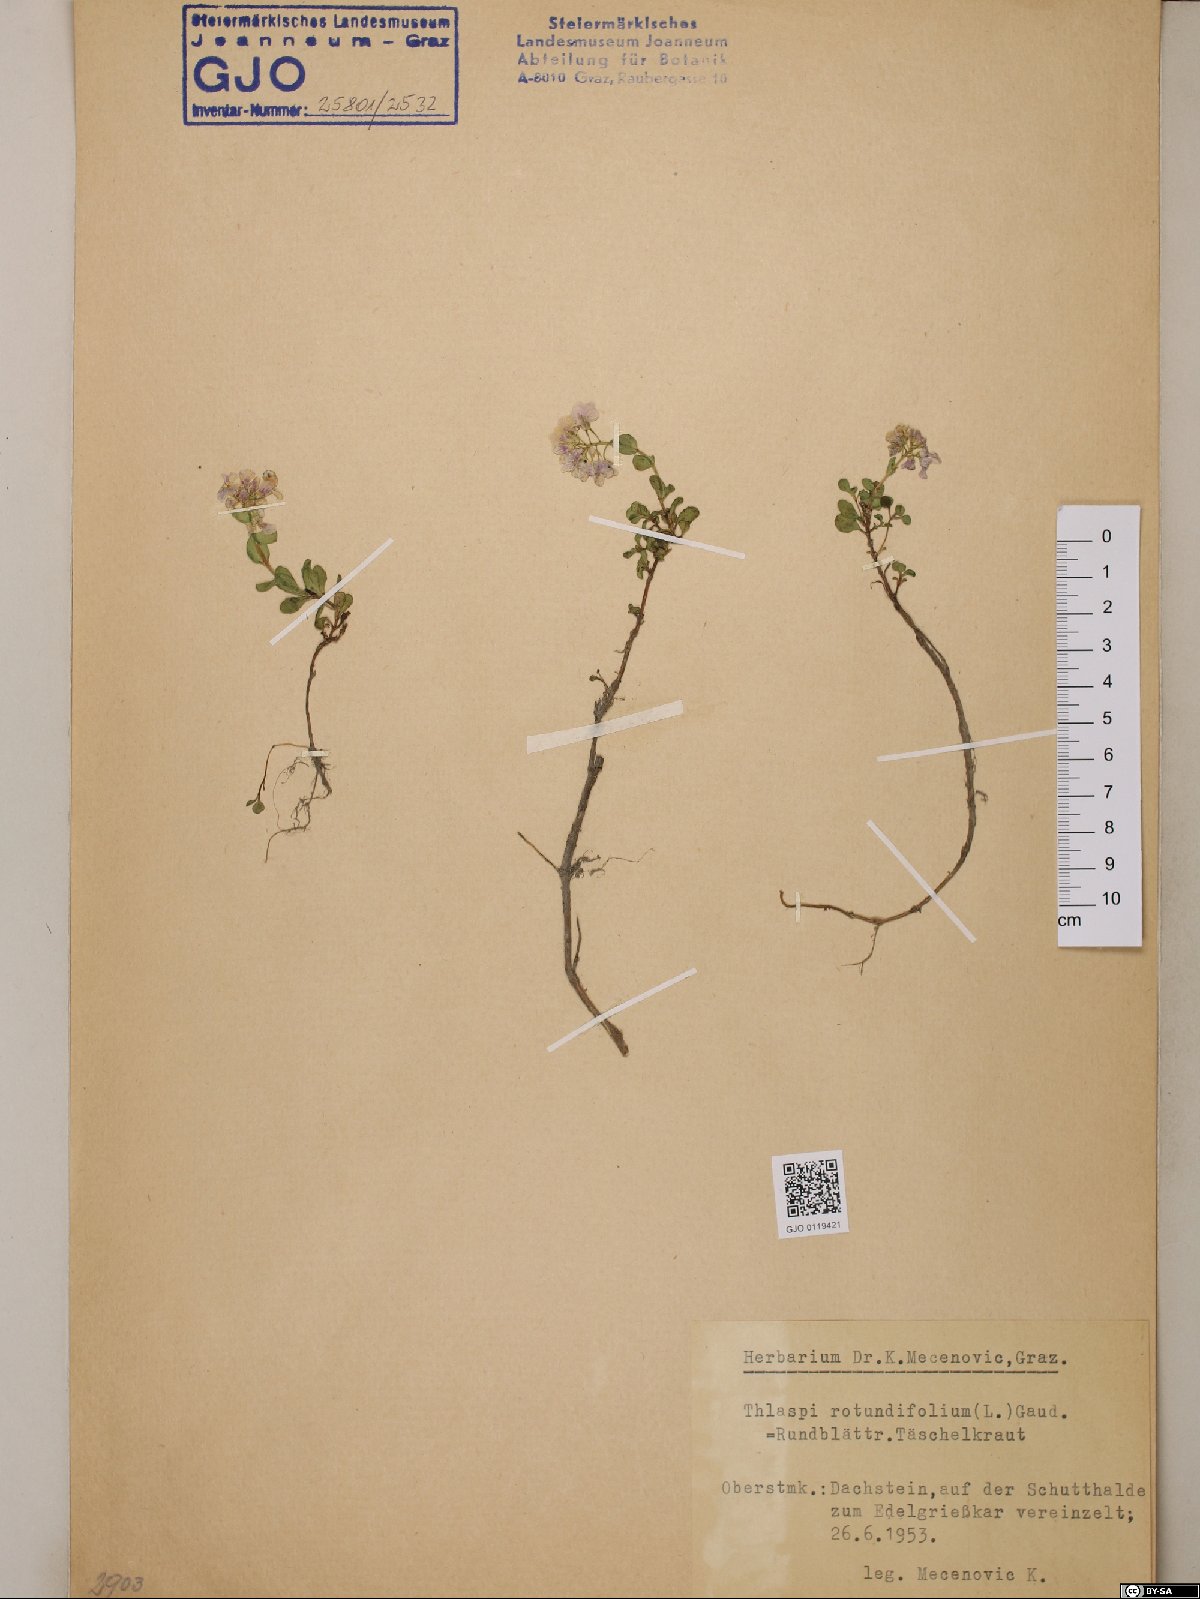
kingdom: Plantae
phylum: Tracheophyta
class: Magnoliopsida
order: Brassicales
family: Brassicaceae
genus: Noccaea
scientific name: Noccaea rotundifolia
